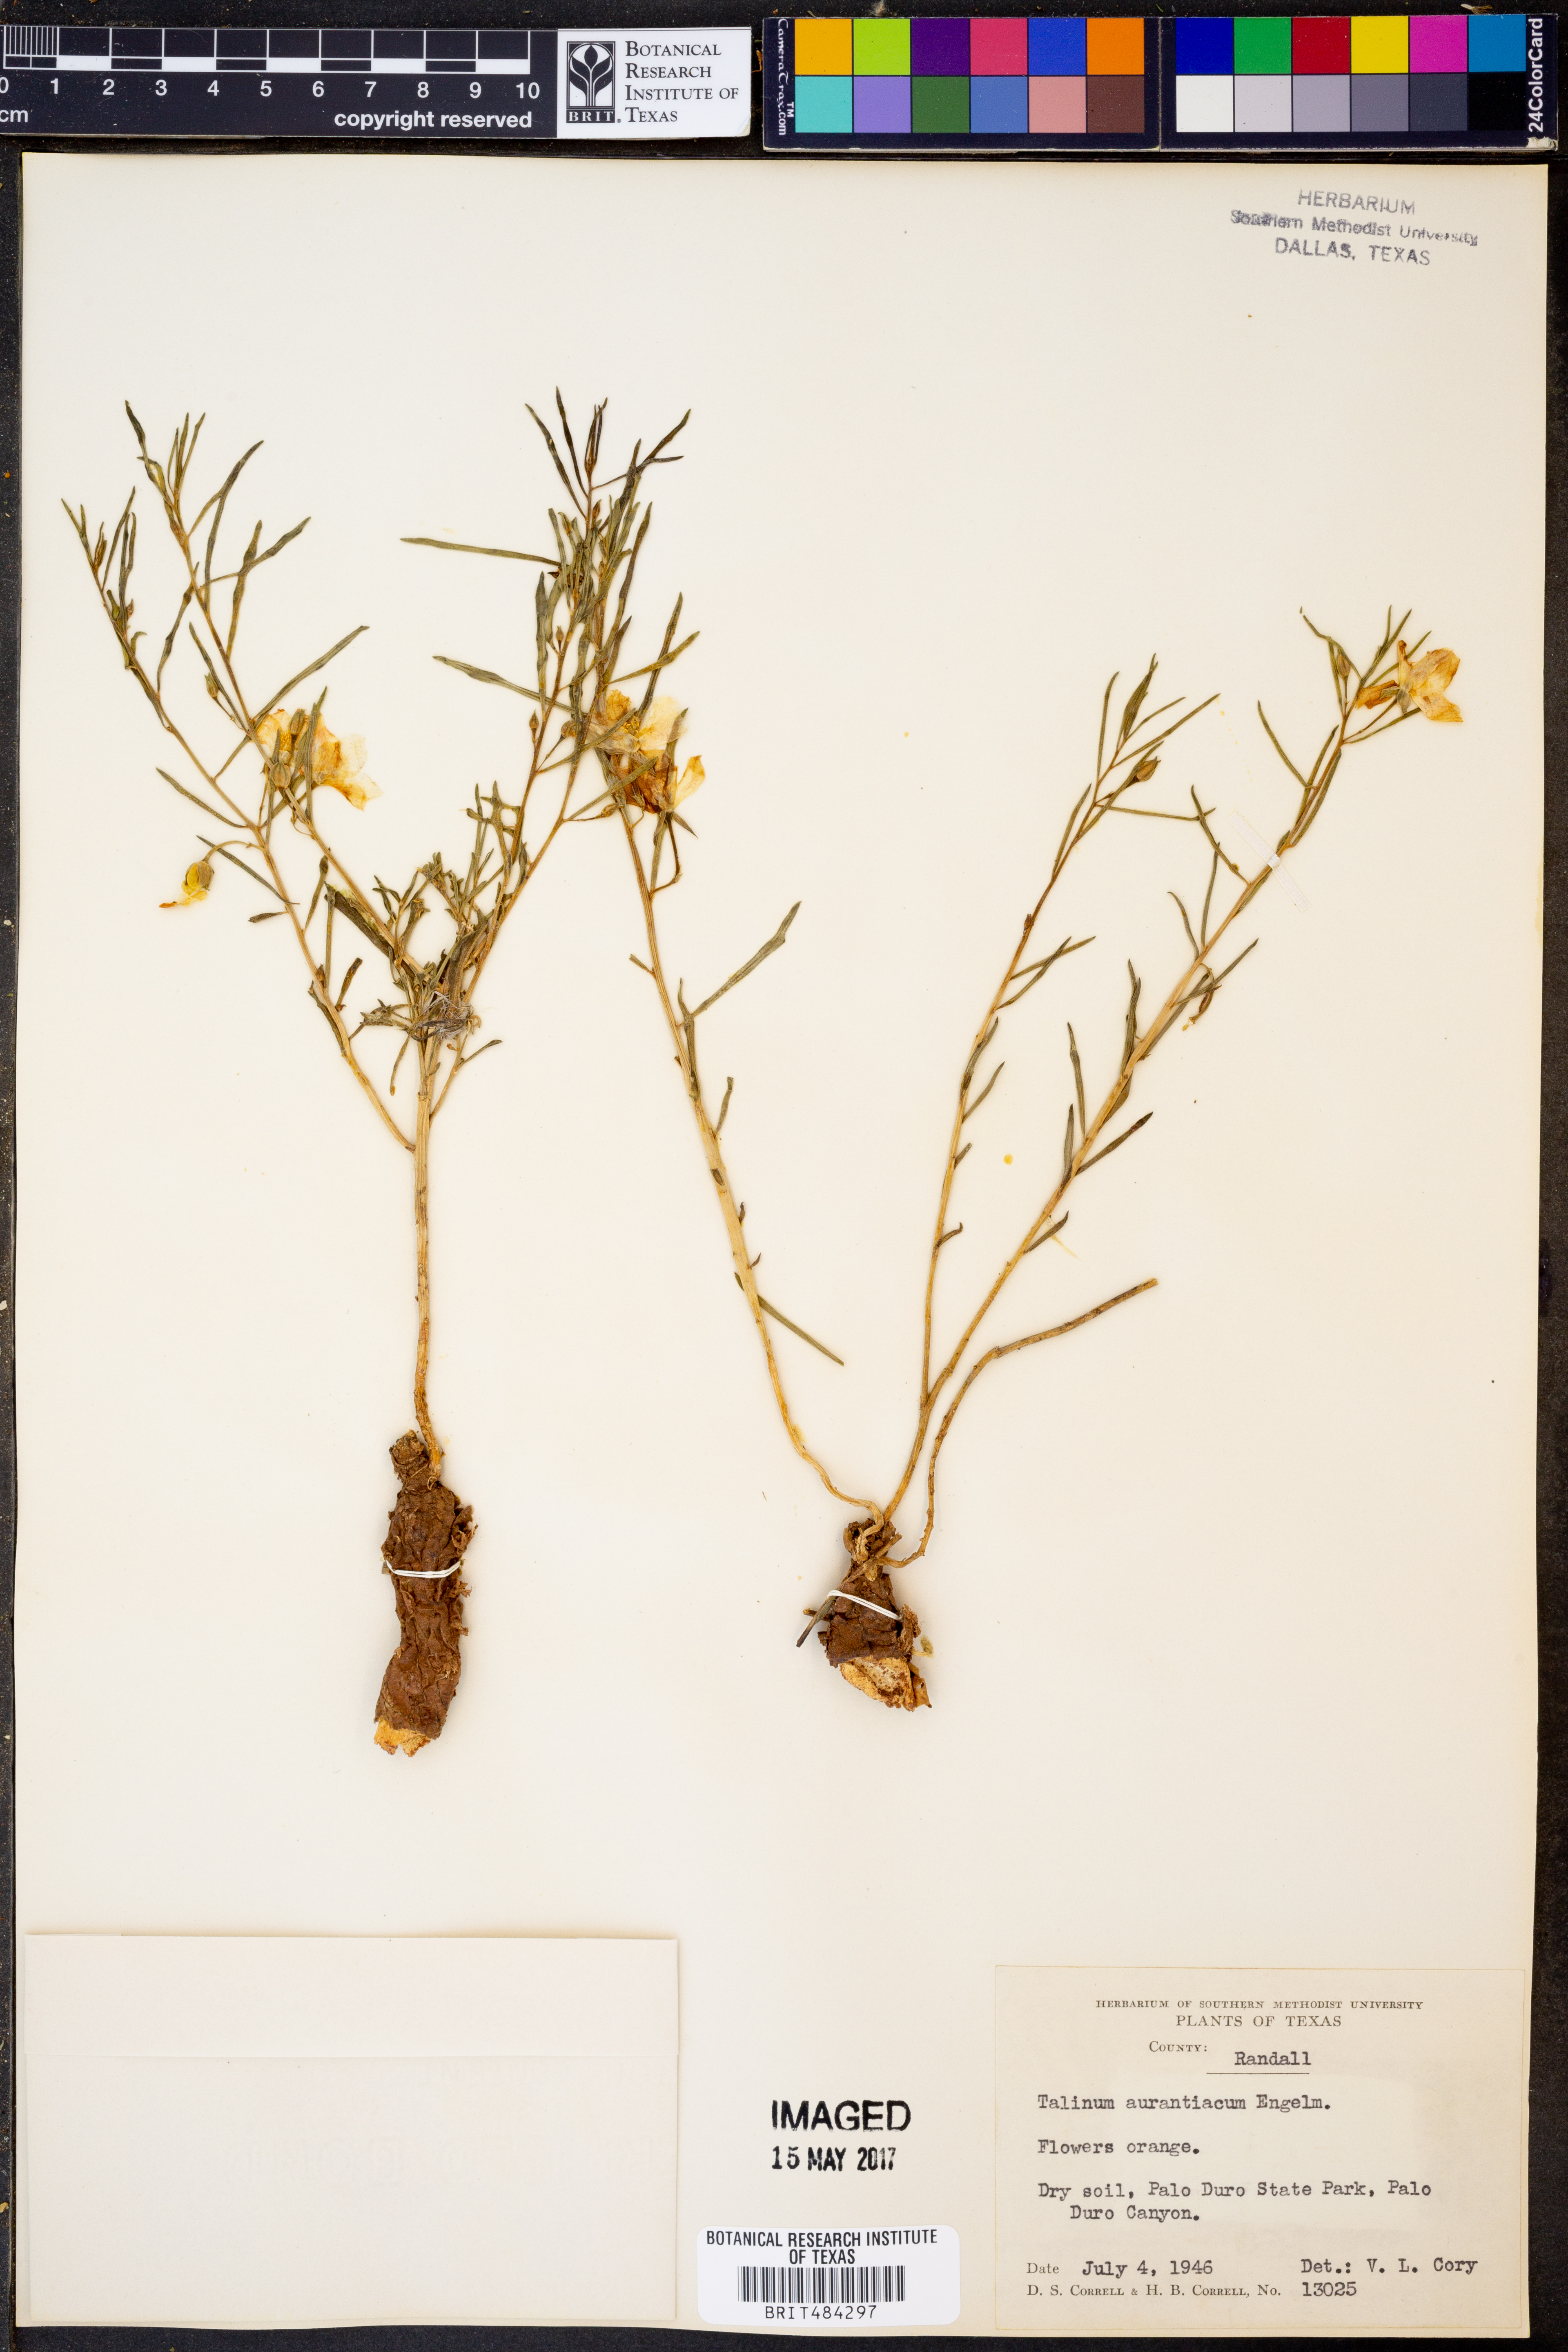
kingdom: Plantae
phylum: Tracheophyta
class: Magnoliopsida
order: Caryophyllales
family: Montiaceae
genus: Phemeranthus
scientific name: Phemeranthus aurantiacus
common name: Orange fameflower
